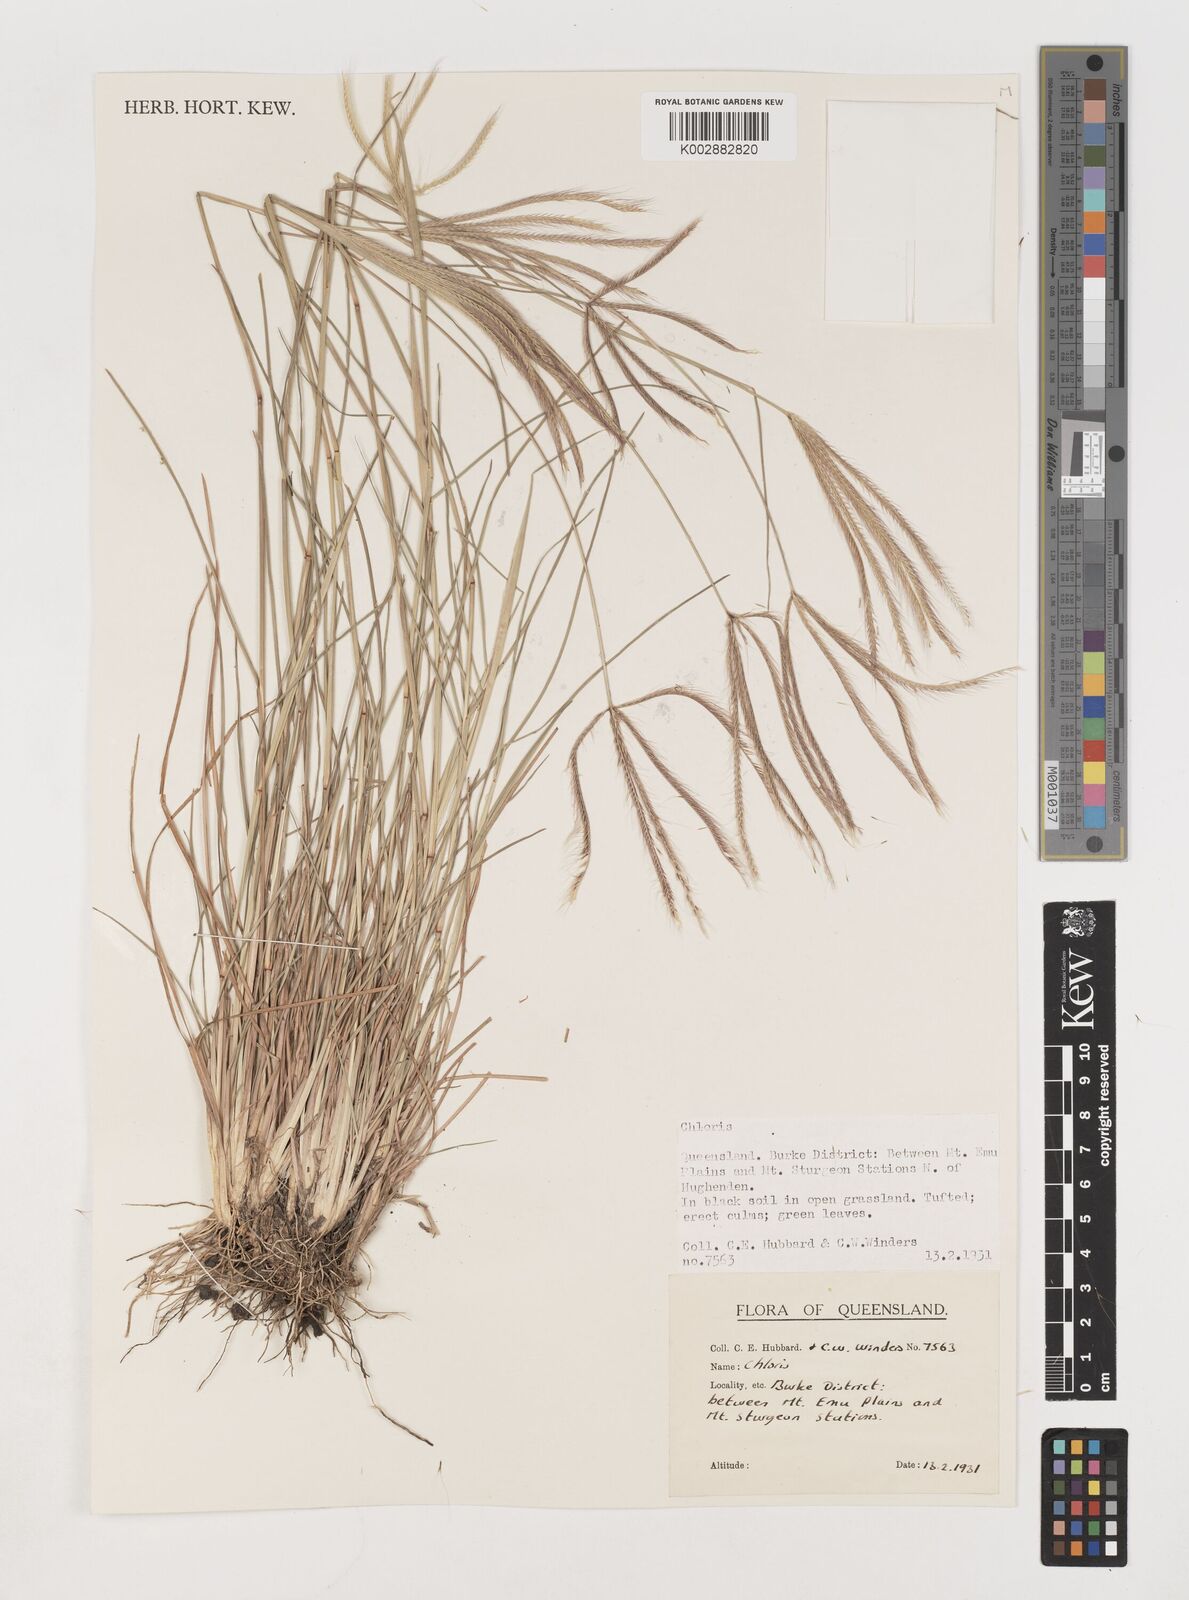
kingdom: Plantae
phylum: Tracheophyta
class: Liliopsida
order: Poales
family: Poaceae
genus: Chloris
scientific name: Chloris pectinata
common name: Comb windmill grass
